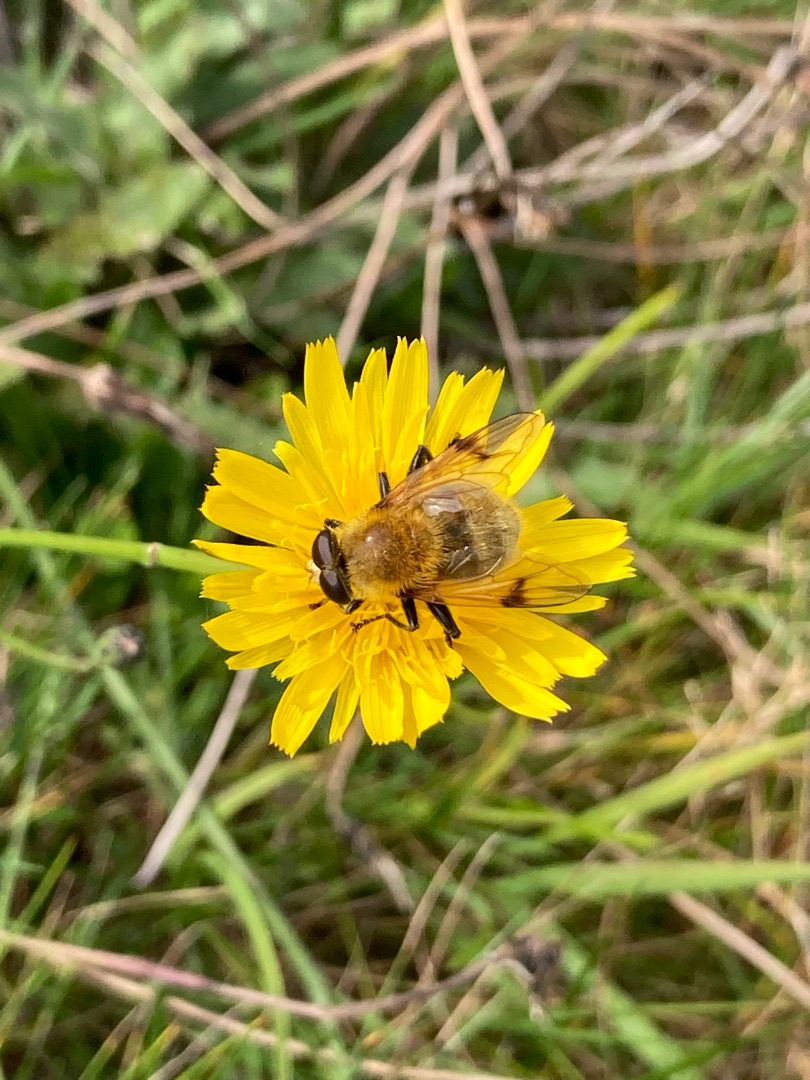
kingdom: Animalia
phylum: Arthropoda
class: Insecta
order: Diptera
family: Syrphidae
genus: Sericomyia
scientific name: Sericomyia superbiens
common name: Brun bjørnesvirreflue
